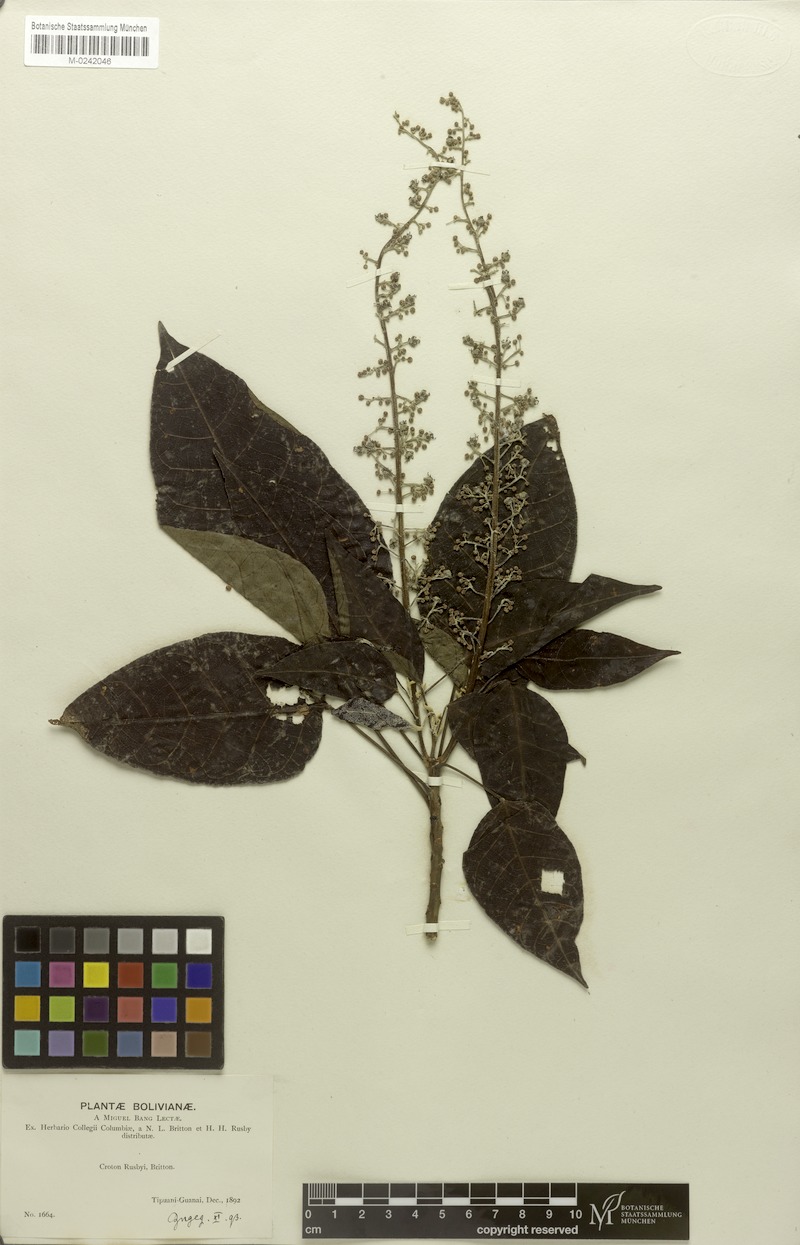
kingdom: Plantae
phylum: Tracheophyta
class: Magnoliopsida
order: Malpighiales
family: Euphorbiaceae
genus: Croton
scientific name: Croton rusbyi
